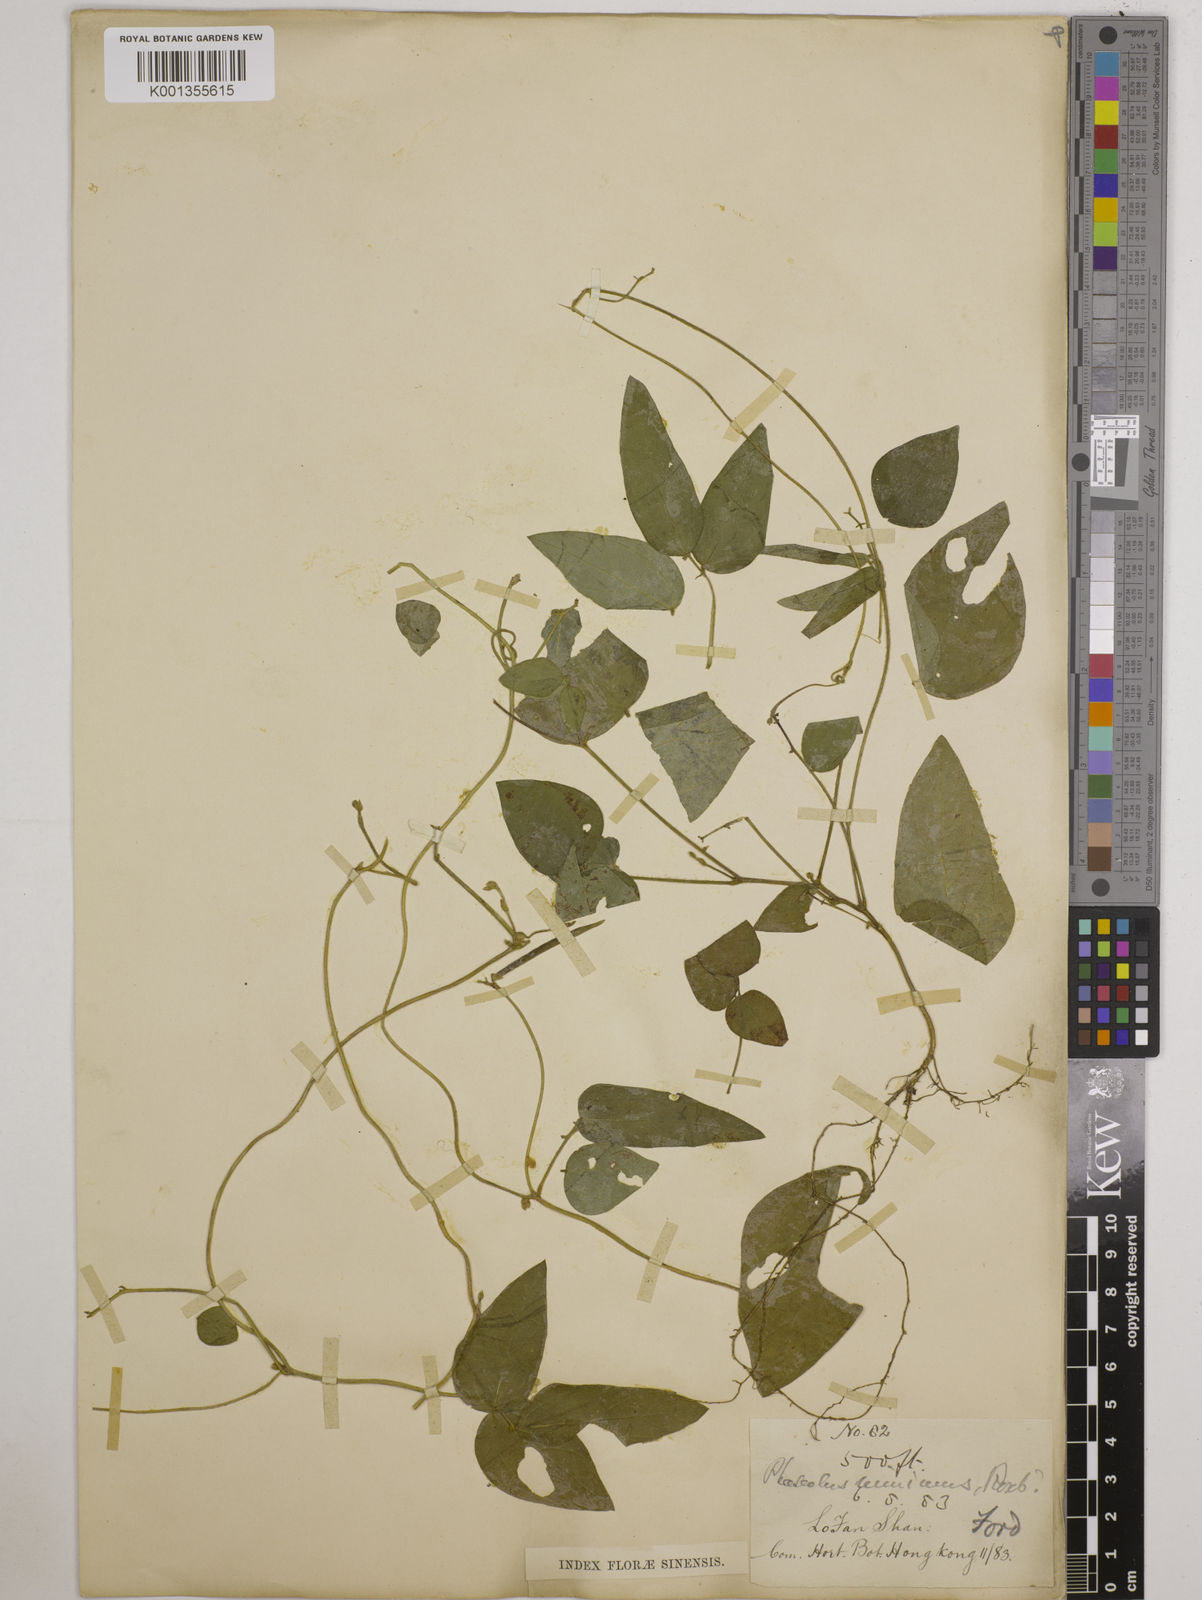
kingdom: Plantae
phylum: Tracheophyta
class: Magnoliopsida
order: Fabales
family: Fabaceae
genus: Vigna
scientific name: Vigna minima
